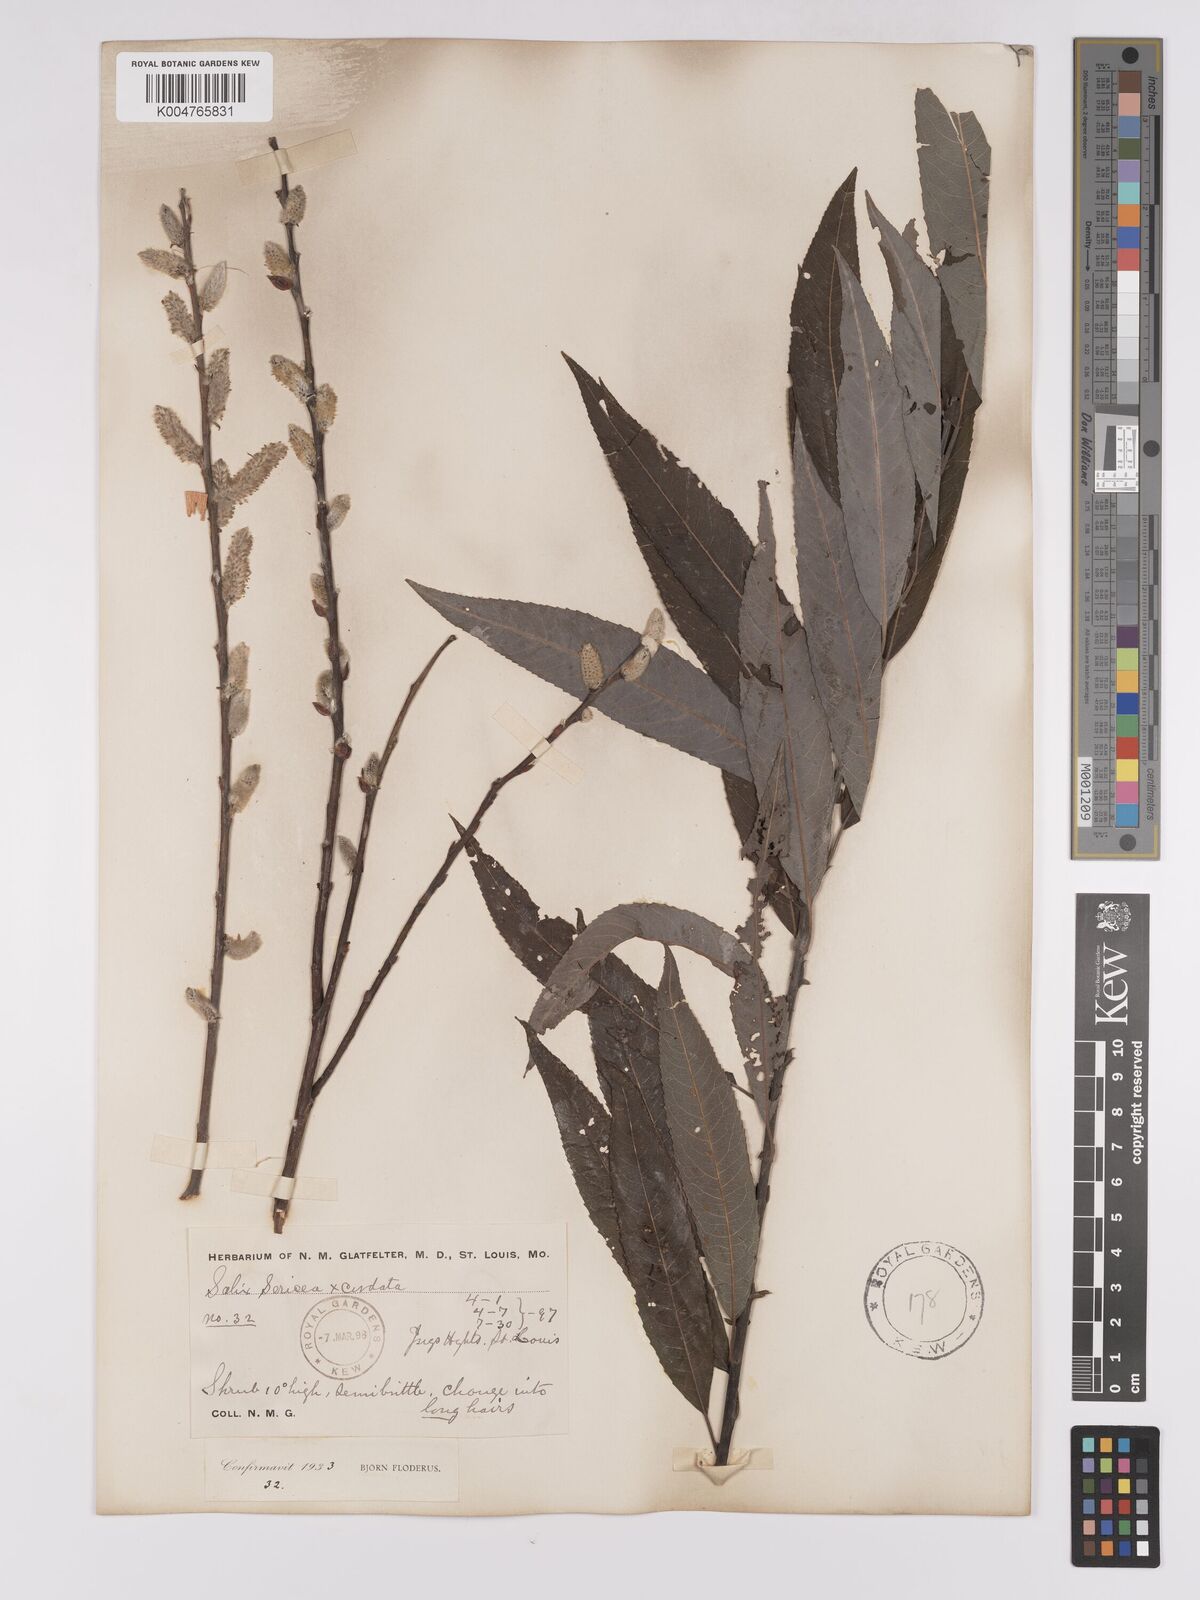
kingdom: Plantae
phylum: Tracheophyta
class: Magnoliopsida
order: Malpighiales
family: Salicaceae
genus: Salix
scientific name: Salix
